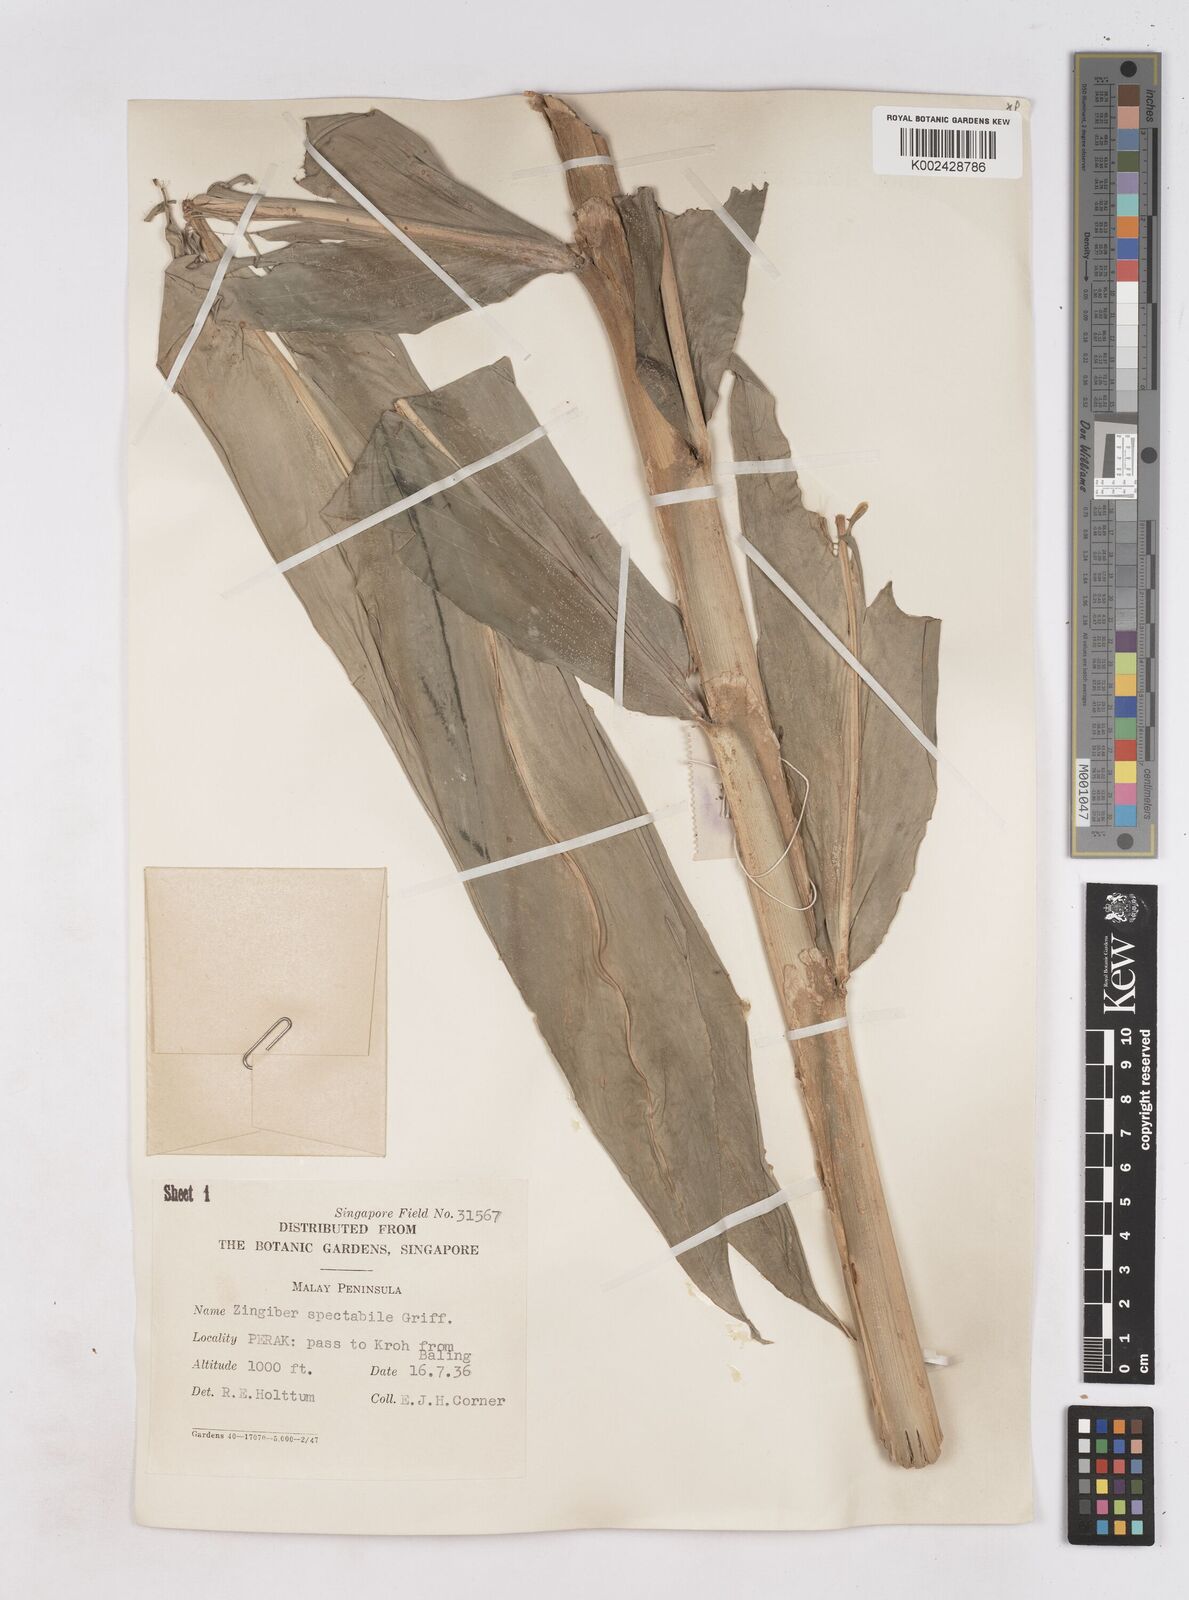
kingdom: Plantae
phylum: Tracheophyta
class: Liliopsida
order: Zingiberales
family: Zingiberaceae
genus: Zingiber
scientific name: Zingiber spectabile
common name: Beehive ginger
